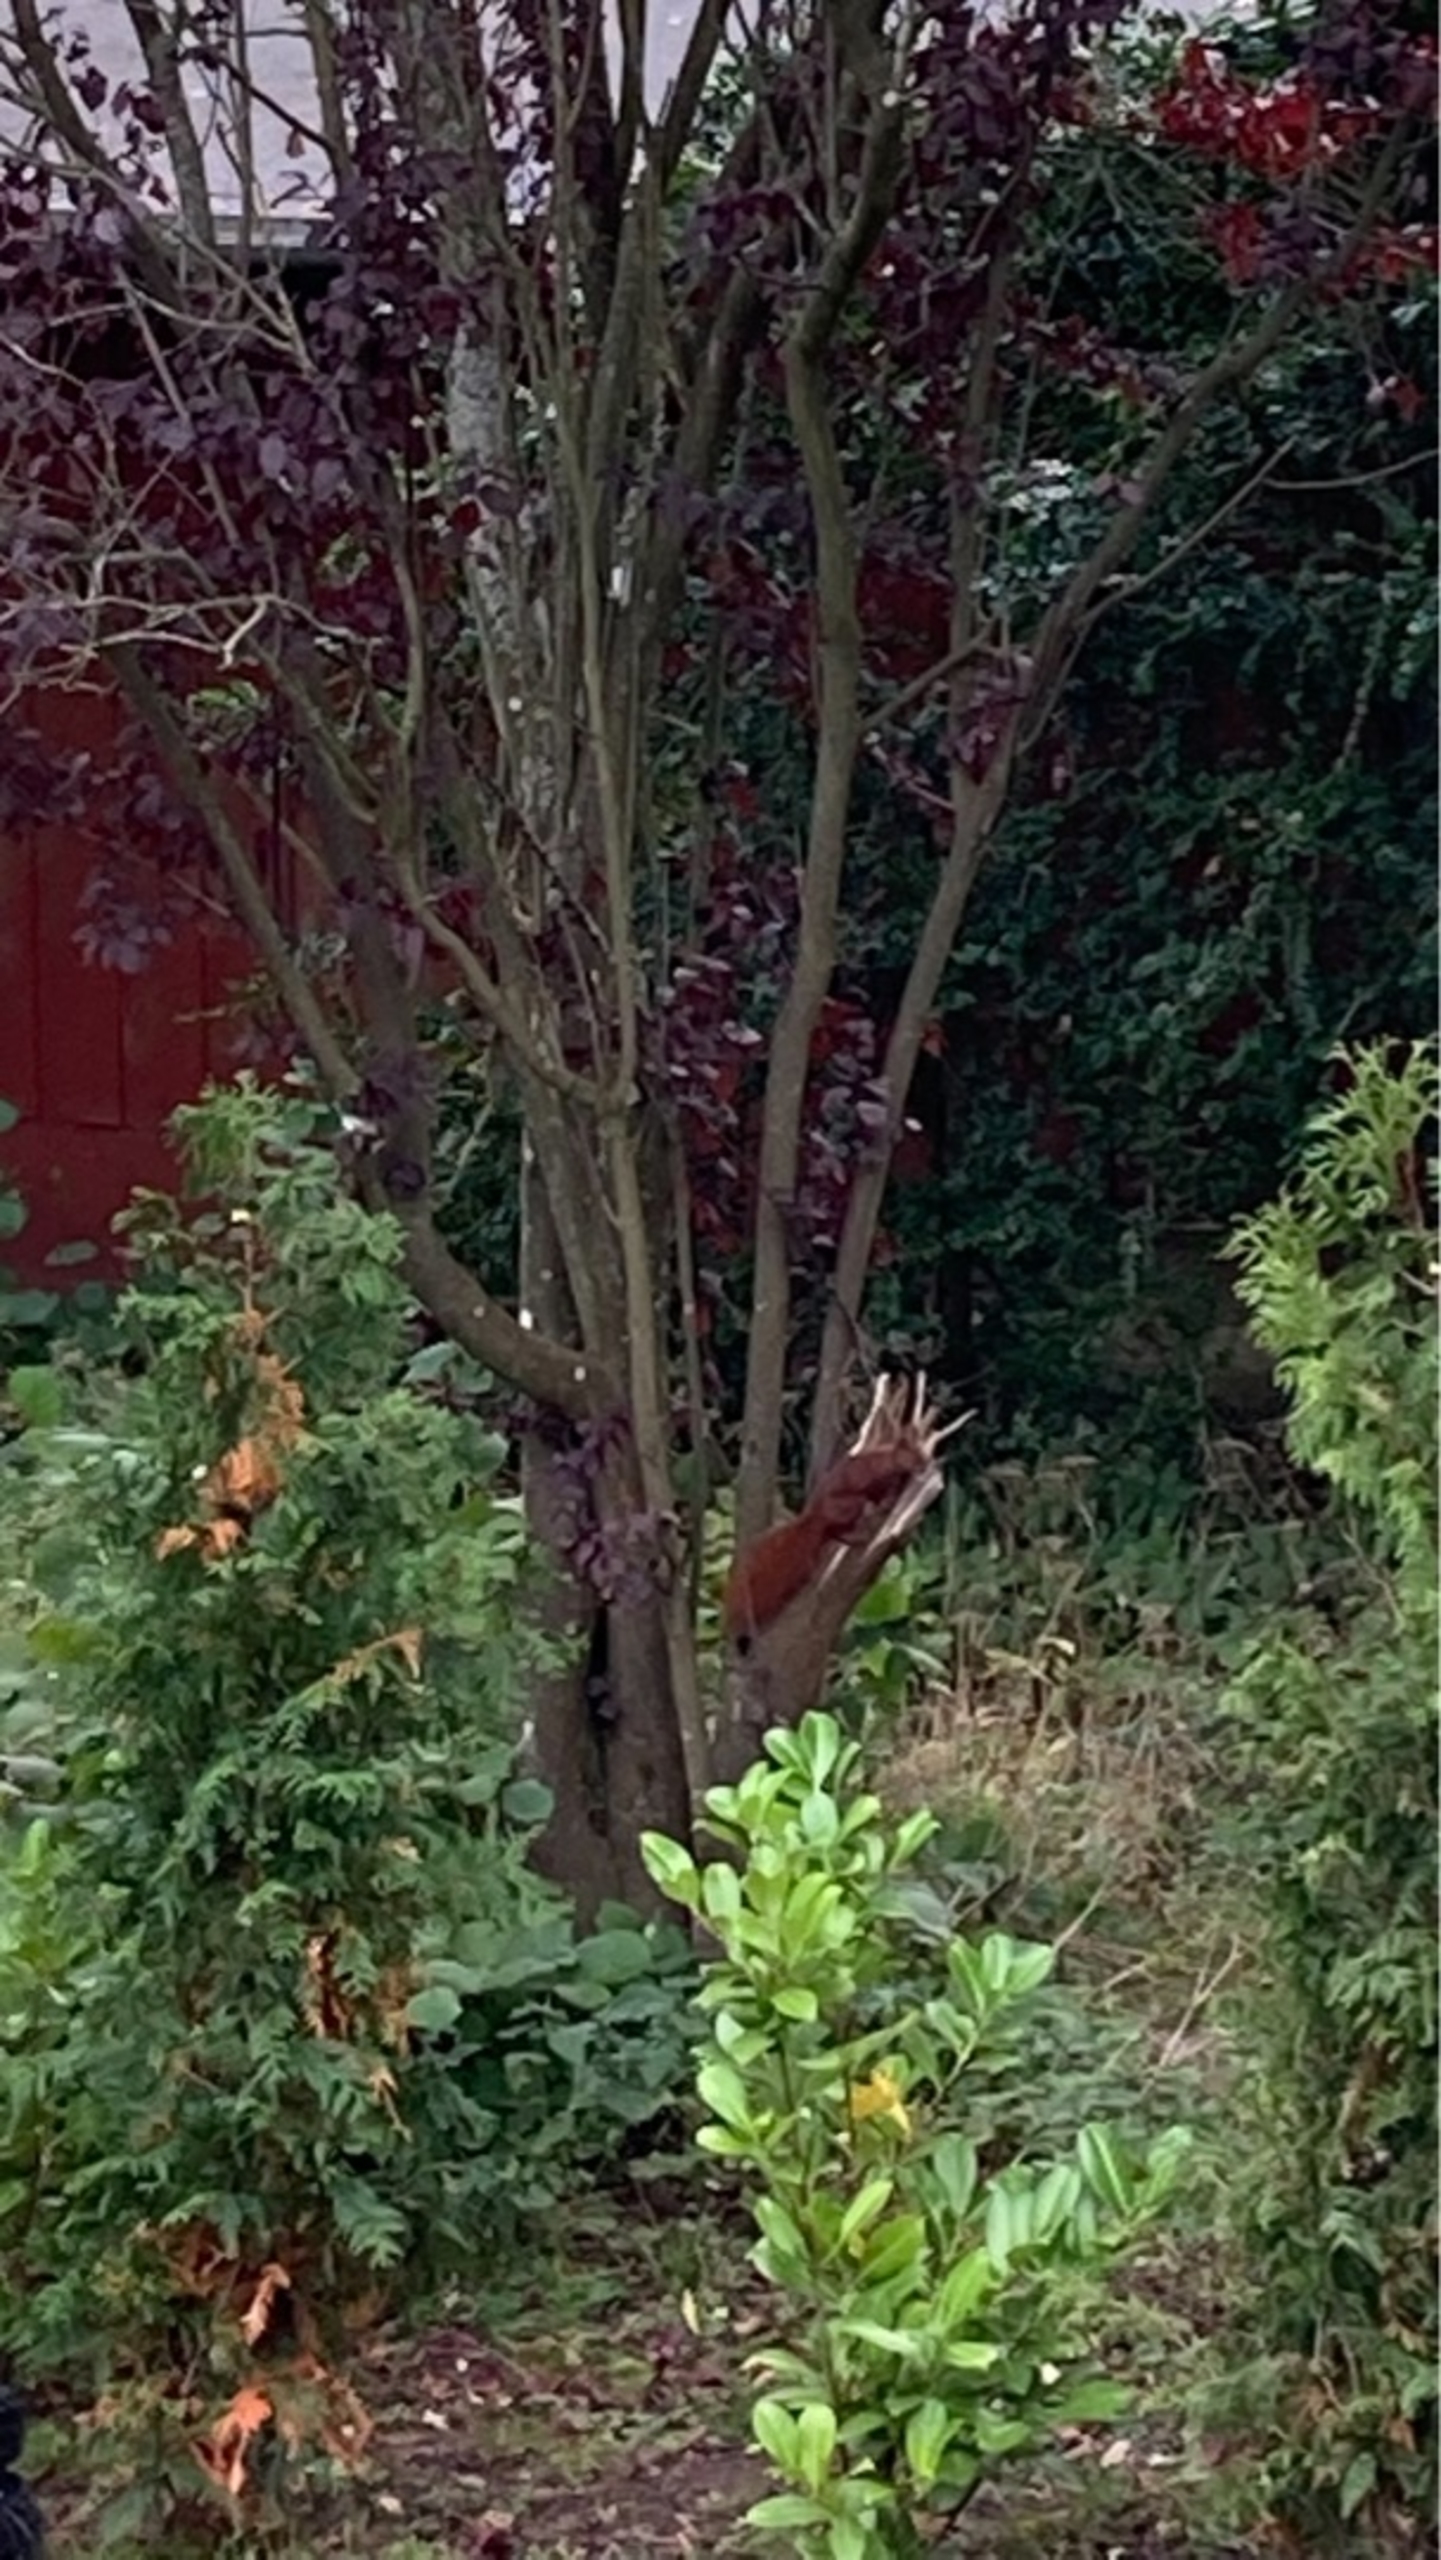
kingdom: Animalia
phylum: Chordata
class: Mammalia
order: Rodentia
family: Sciuridae
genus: Sciurus
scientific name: Sciurus vulgaris
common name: Egern
